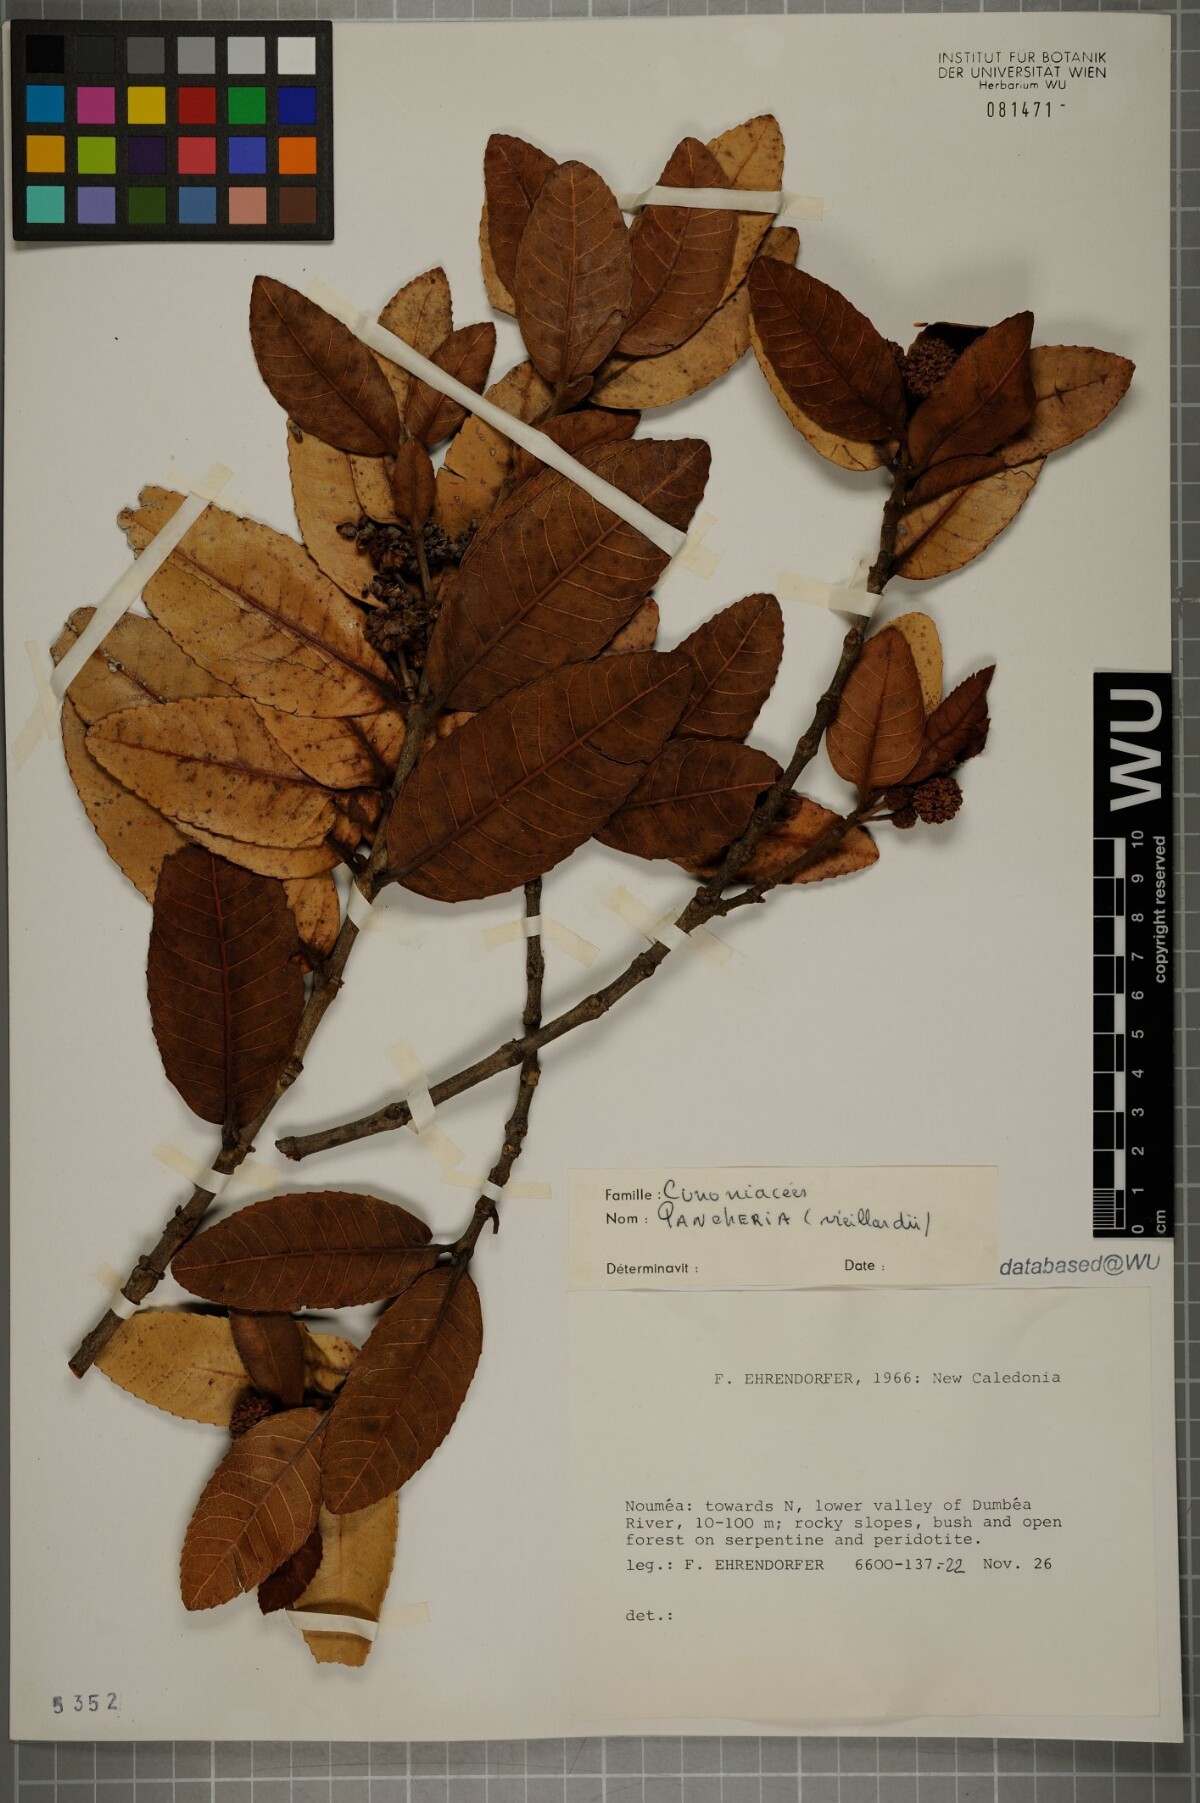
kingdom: Plantae
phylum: Tracheophyta
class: Magnoliopsida
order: Oxalidales
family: Cunoniaceae
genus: Pancheria
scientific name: Pancheria billardierei
